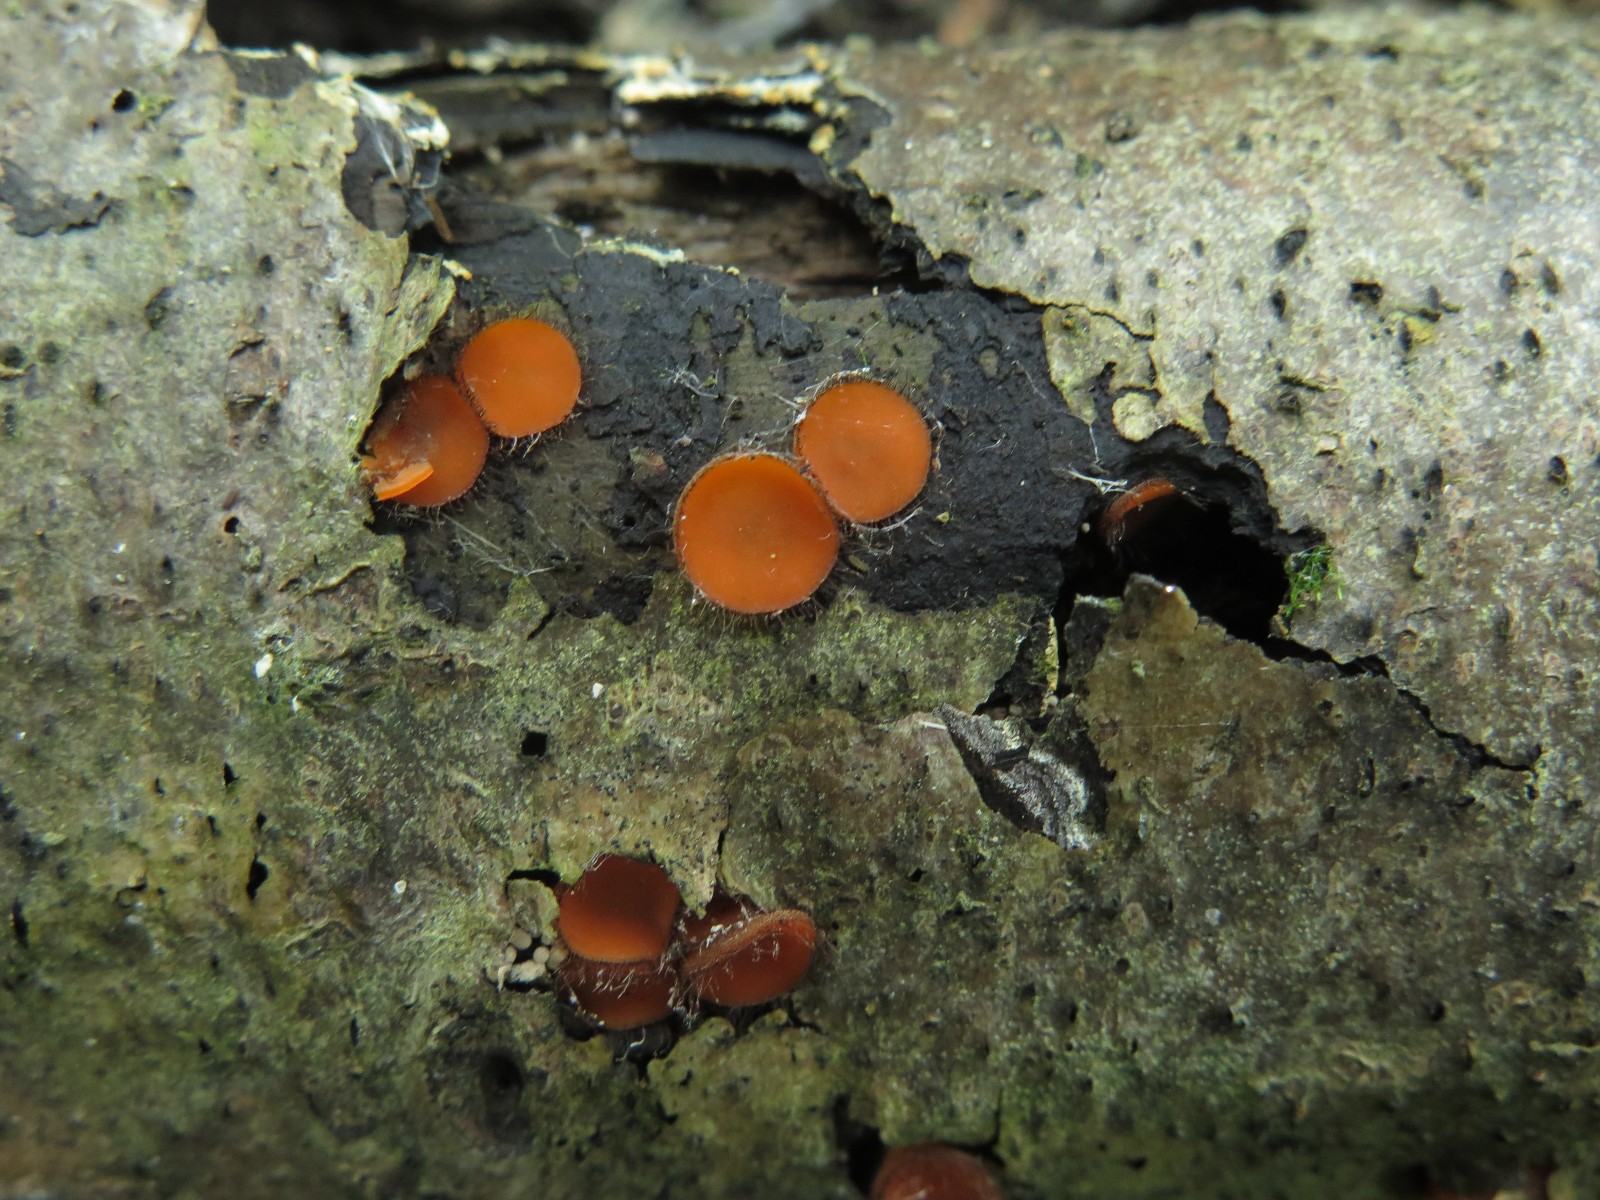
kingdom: Fungi
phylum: Ascomycota
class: Pezizomycetes
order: Pezizales
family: Pyronemataceae
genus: Scutellinia
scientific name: Scutellinia scutellata
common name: frynset skjoldbæger
